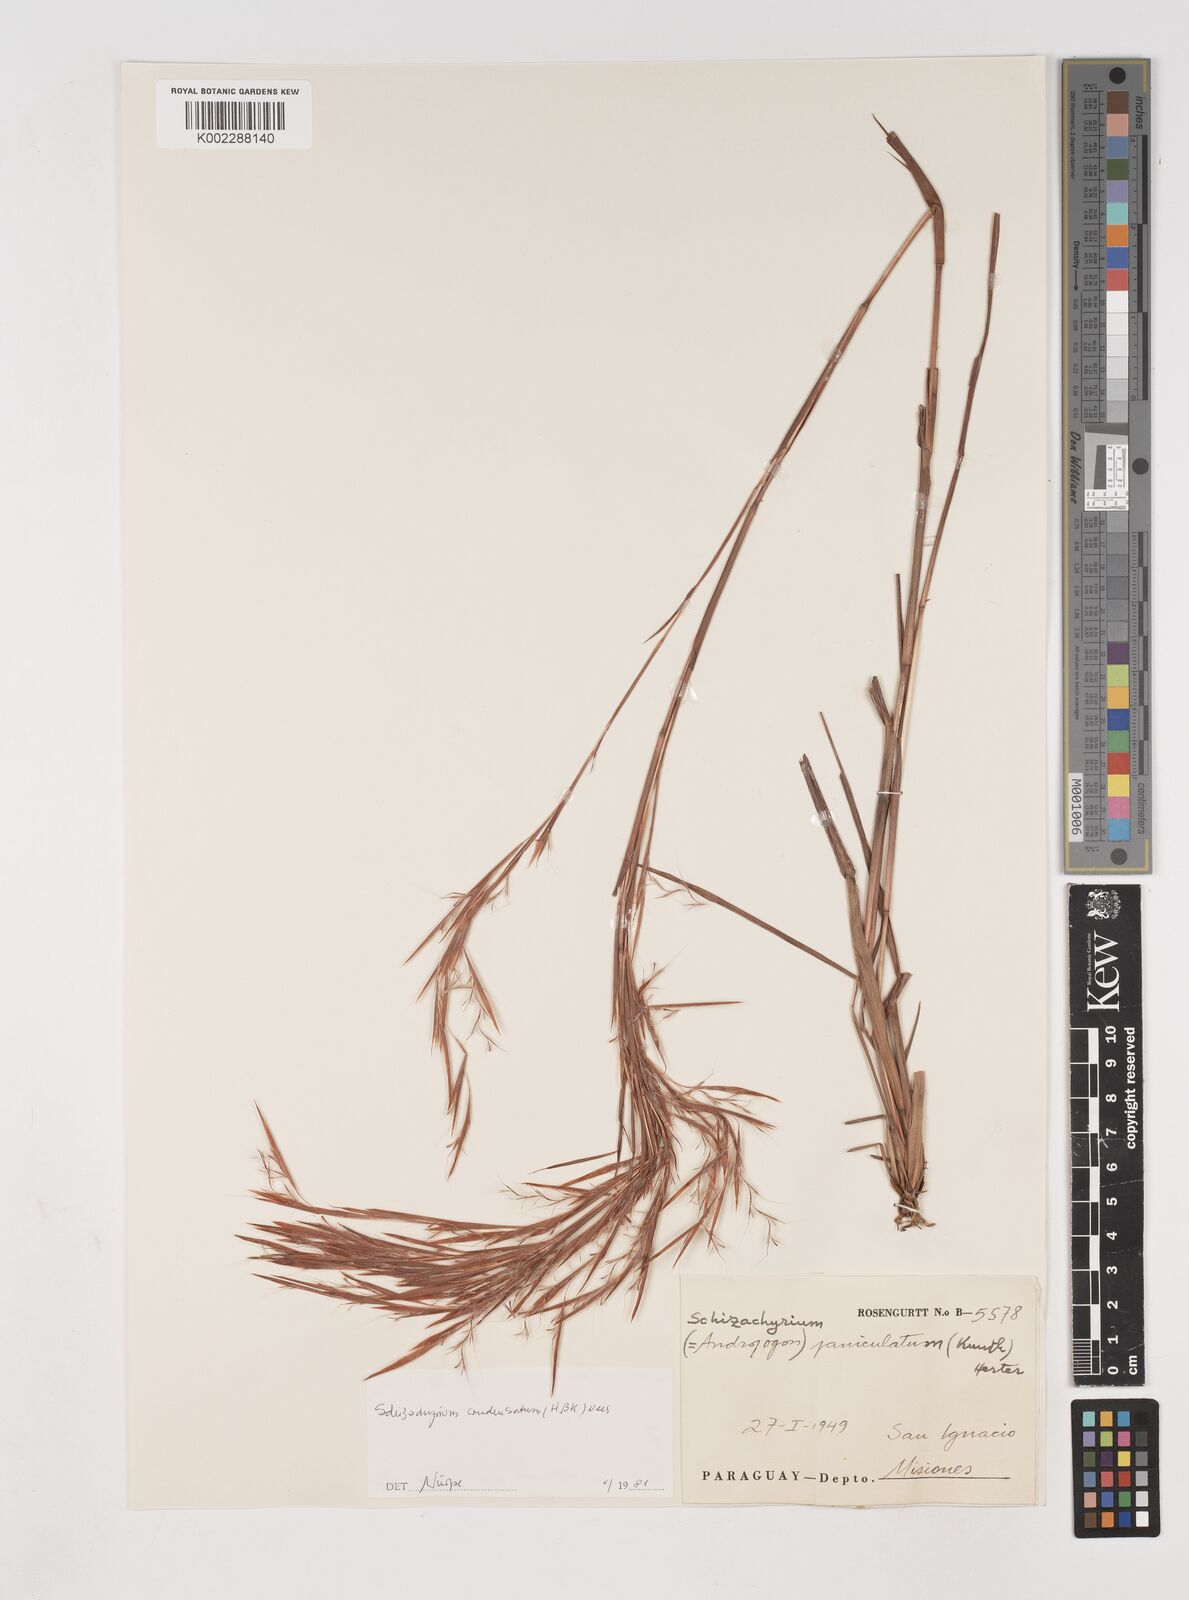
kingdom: Plantae
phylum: Tracheophyta
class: Liliopsida
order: Poales
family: Poaceae
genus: Schizachyrium
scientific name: Schizachyrium microstachyum
